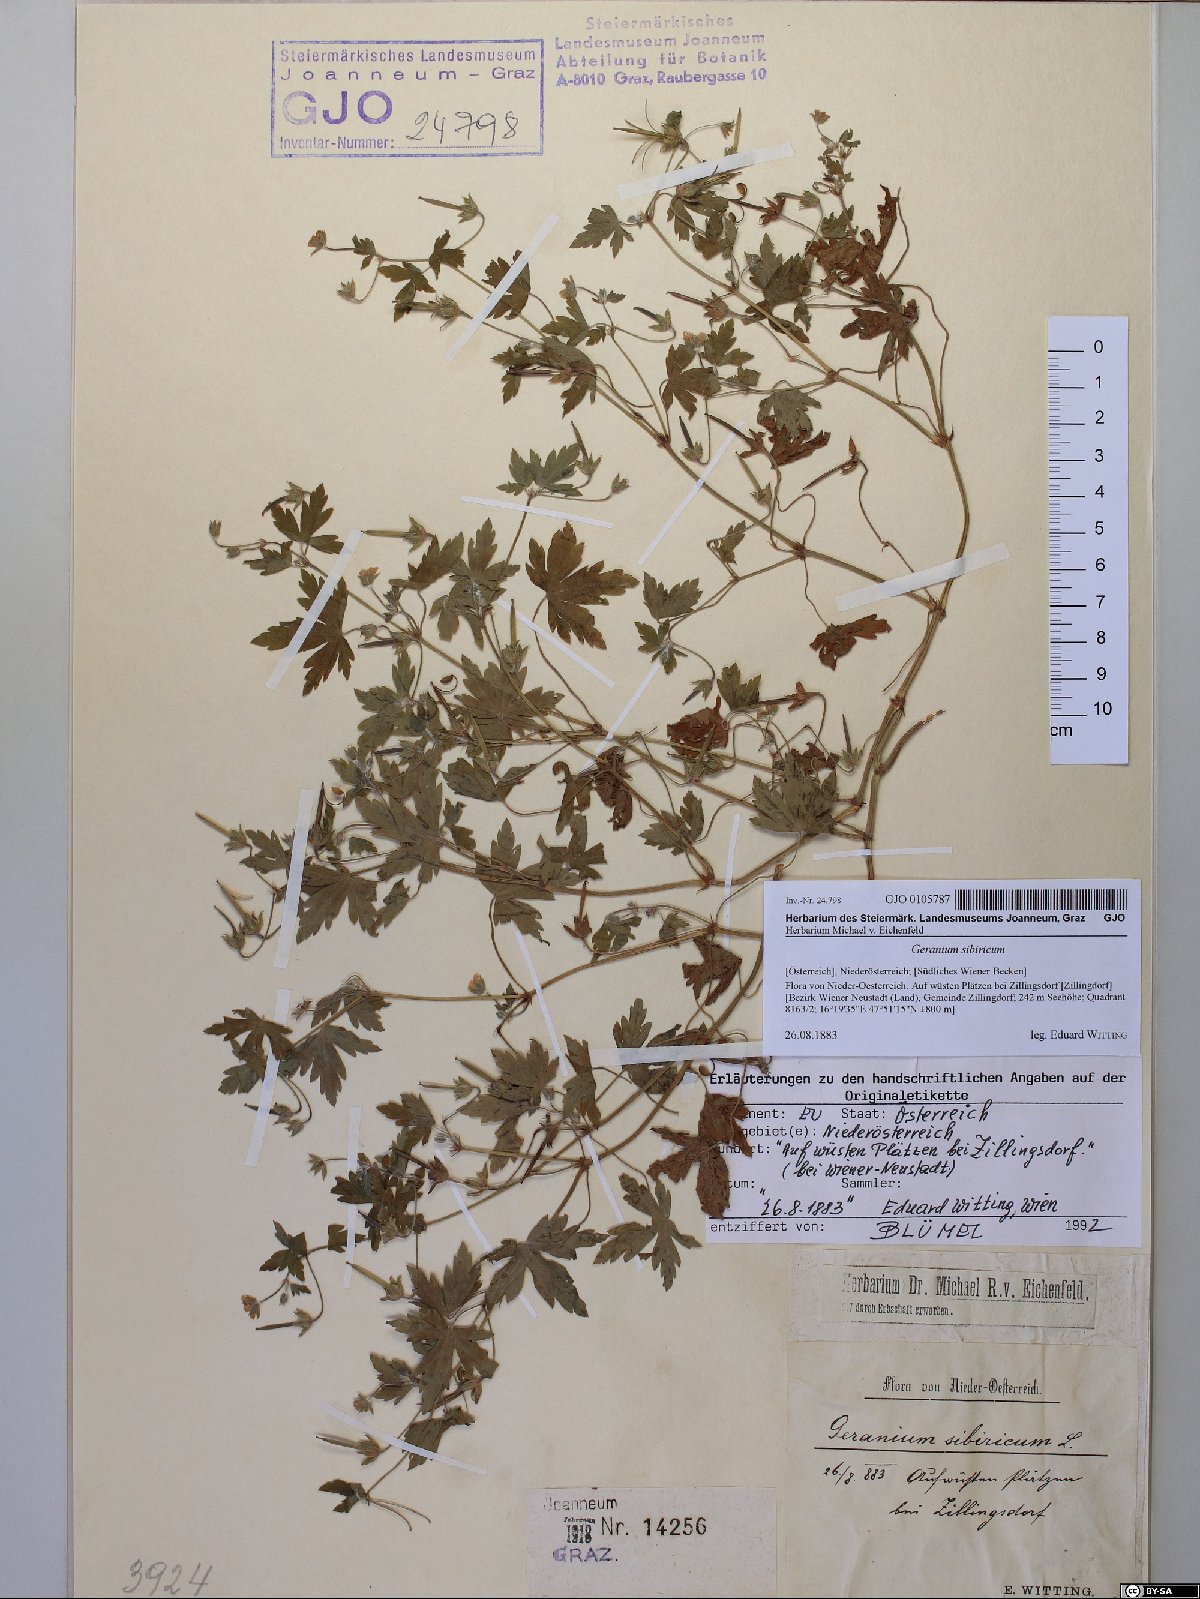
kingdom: Plantae
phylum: Tracheophyta
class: Magnoliopsida
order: Geraniales
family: Geraniaceae
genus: Geranium
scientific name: Geranium sibiricum
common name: Siberian crane's-bill
